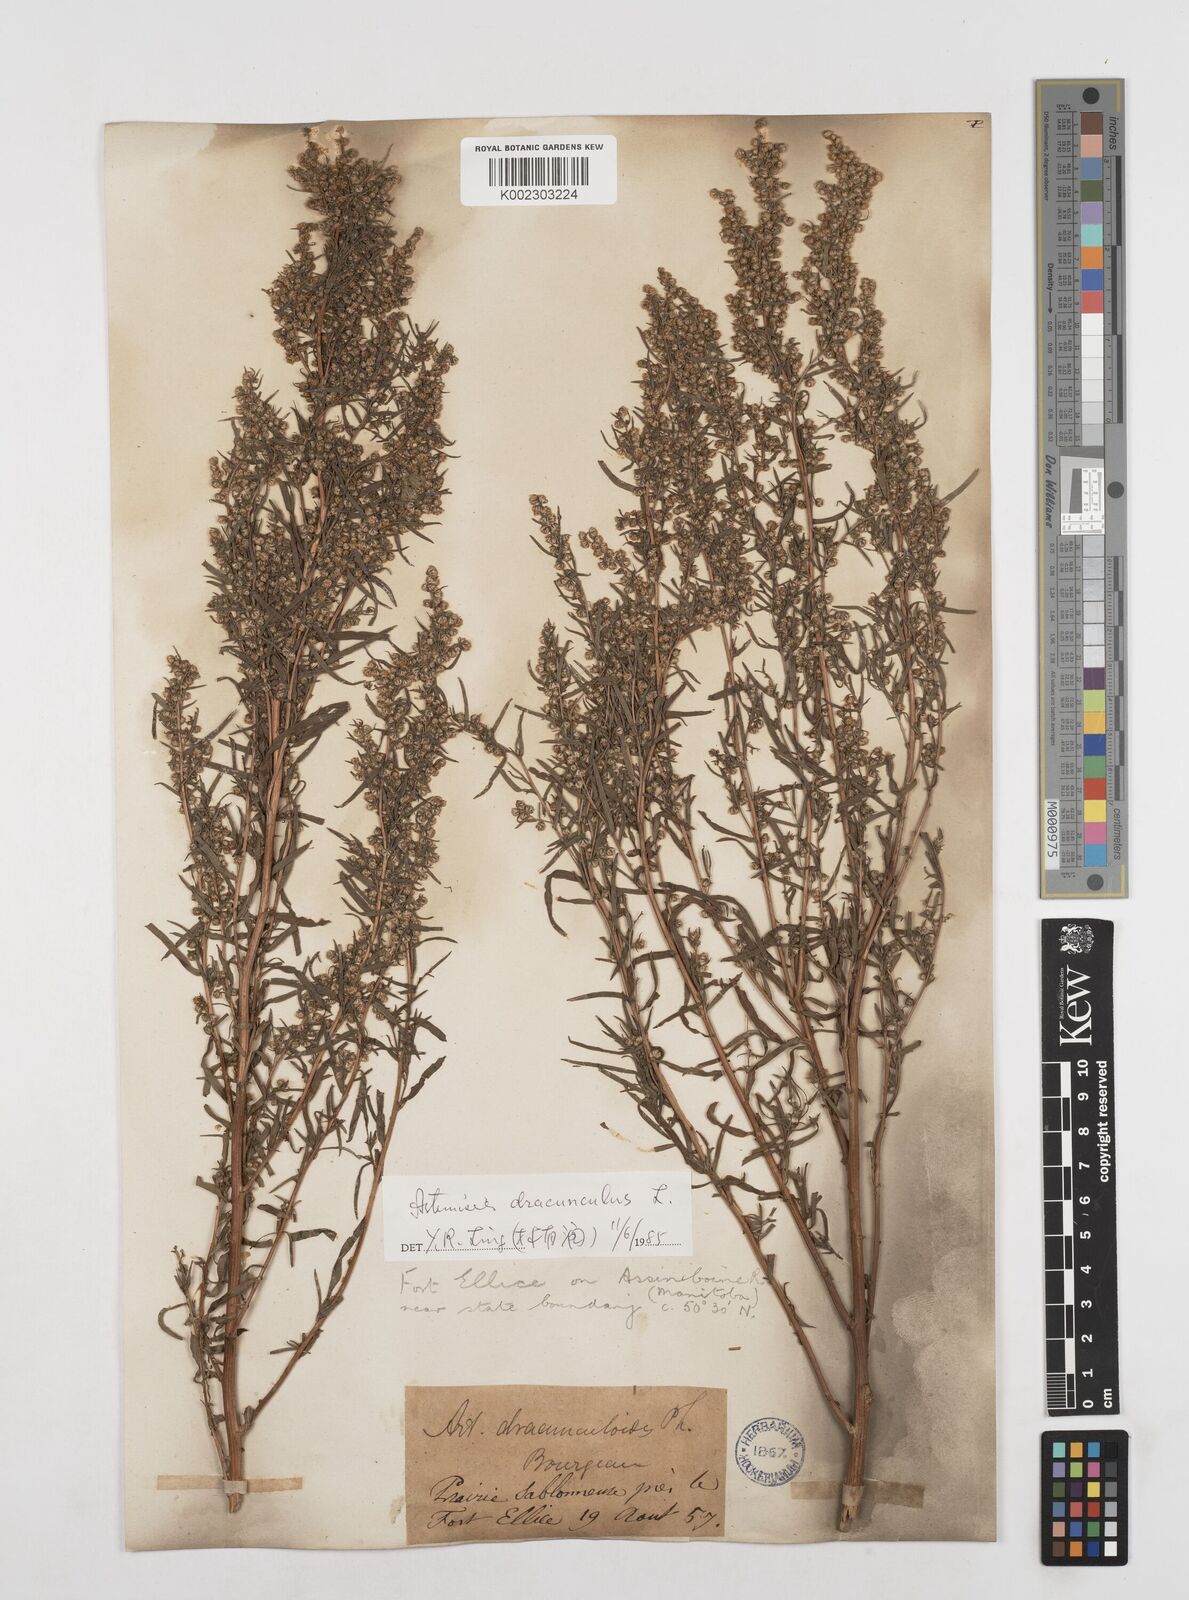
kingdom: Plantae
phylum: Tracheophyta
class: Magnoliopsida
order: Asterales
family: Asteraceae
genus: Artemisia
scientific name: Artemisia dracunculus
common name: Tarragon
